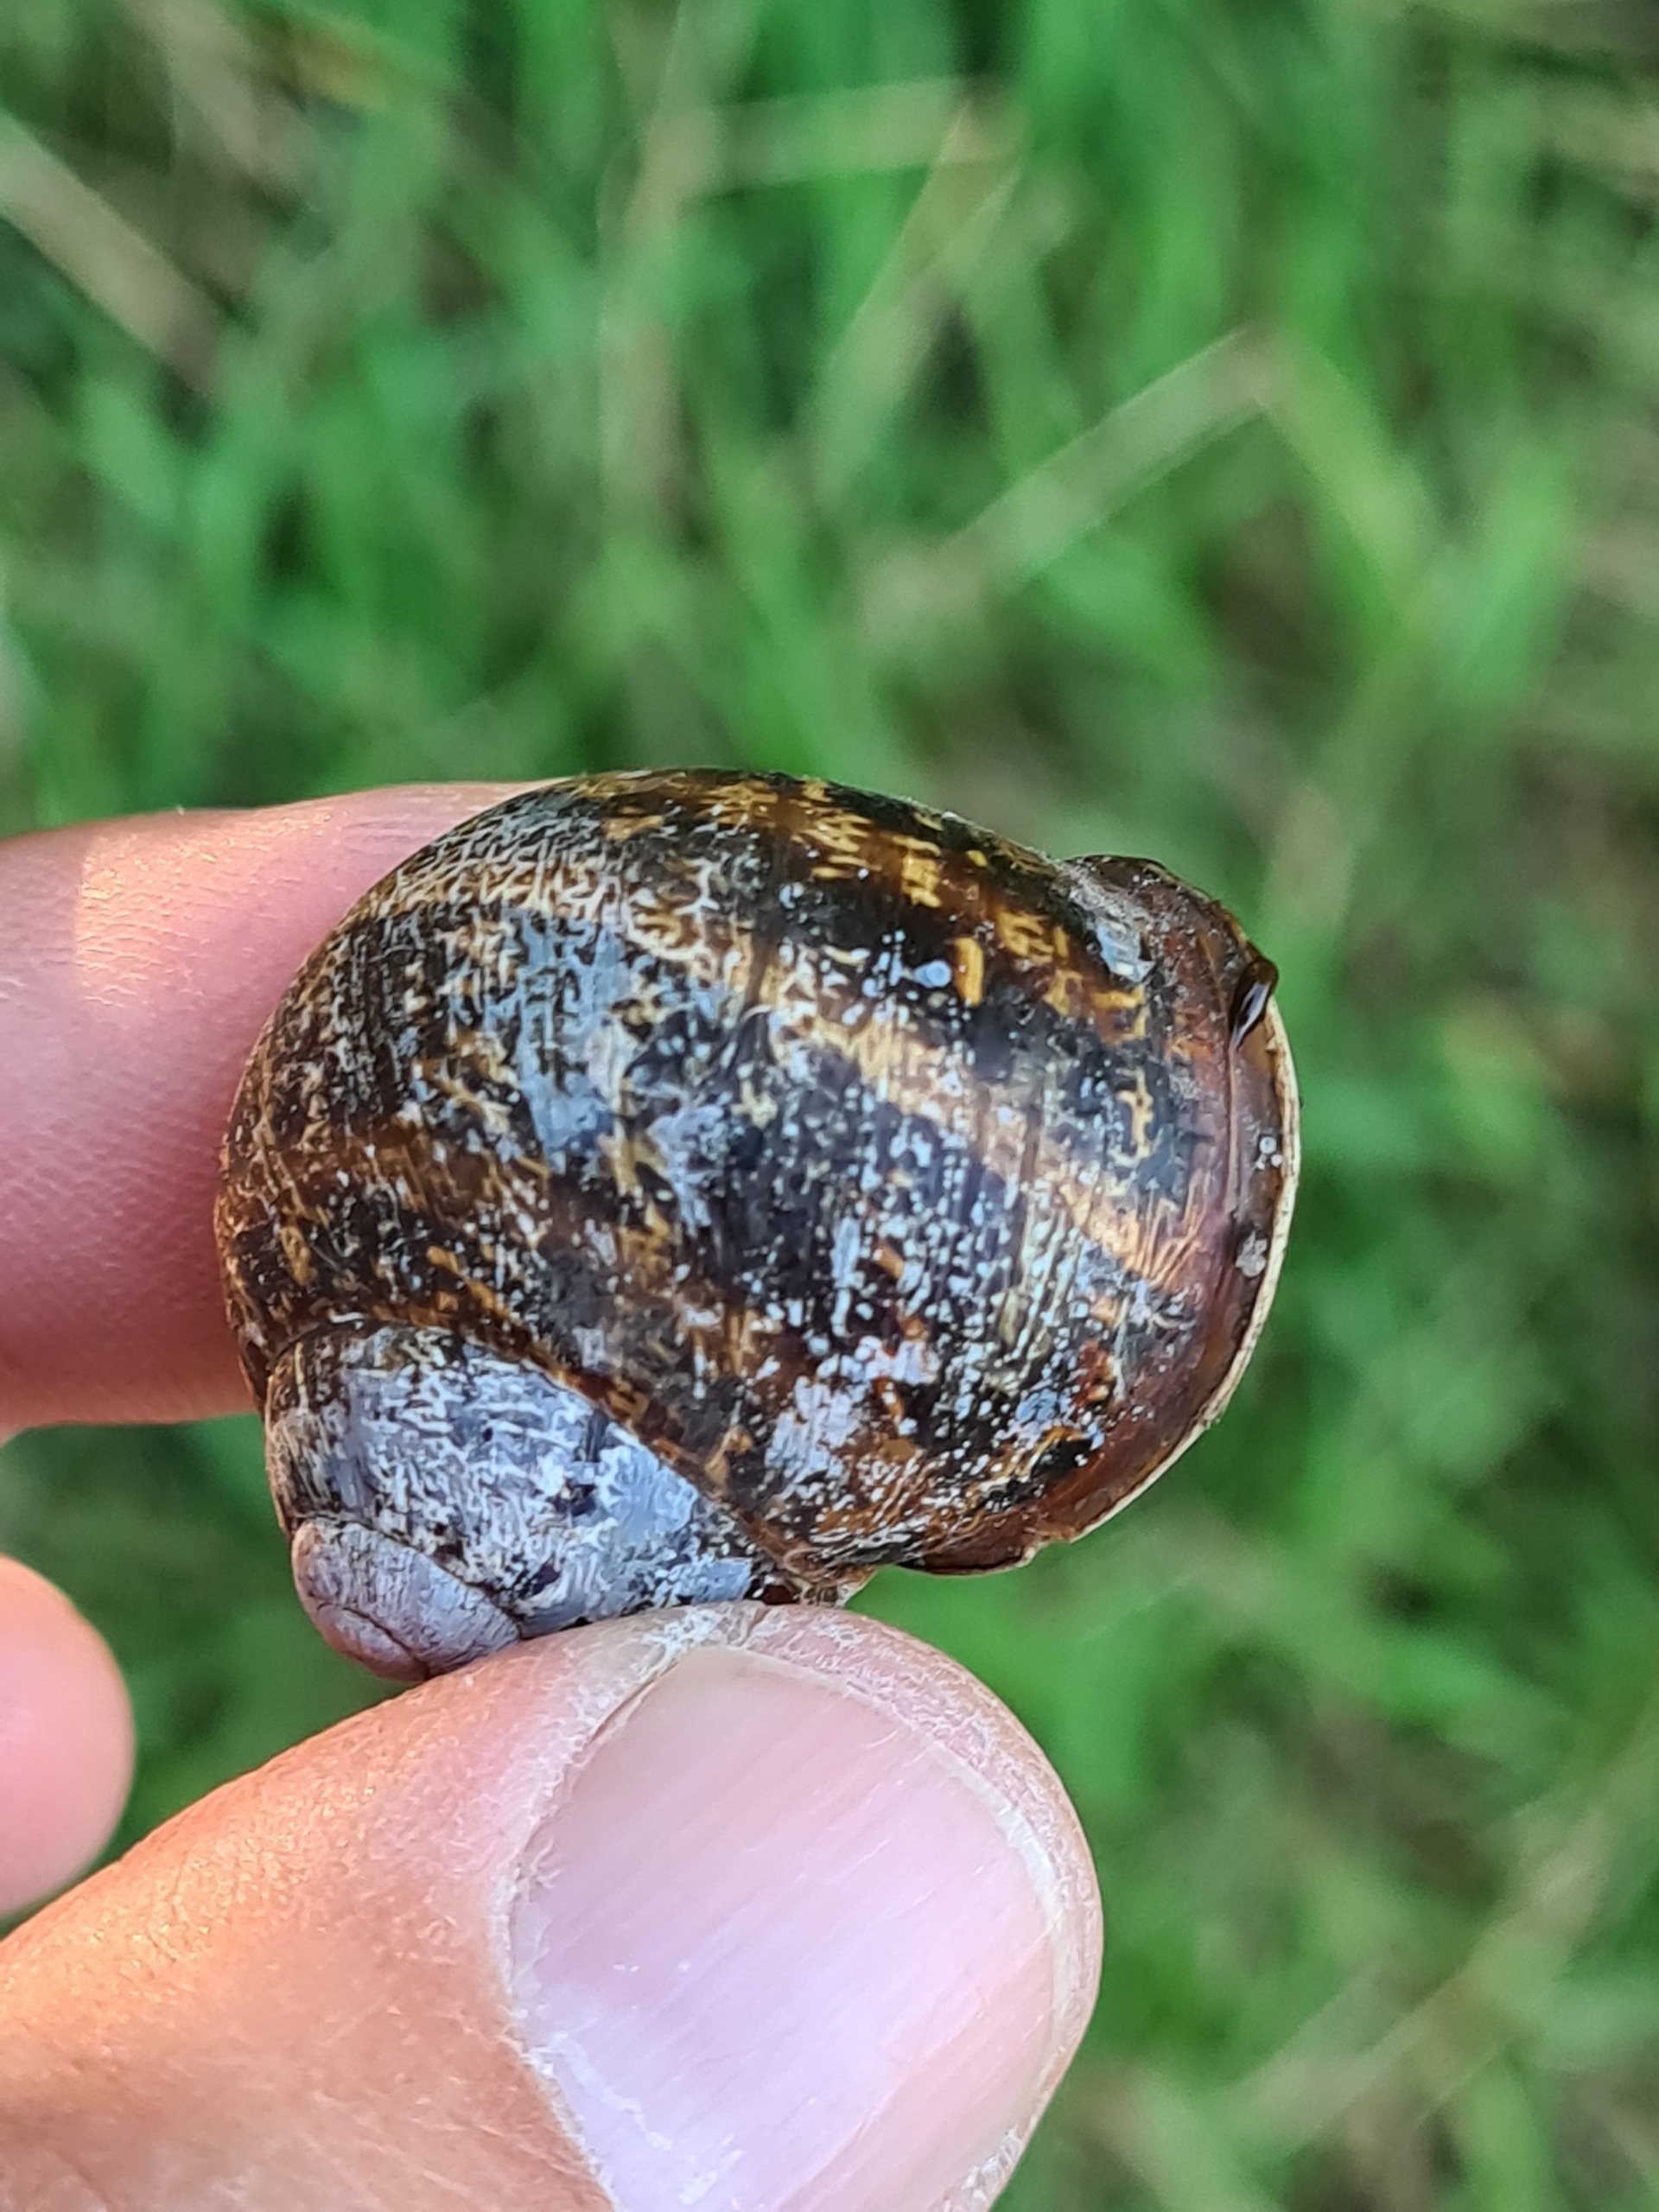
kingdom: Animalia
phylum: Mollusca
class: Gastropoda
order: Stylommatophora
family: Helicidae
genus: Cornu
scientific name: Cornu aspersum
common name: Plettet voldsnegl
